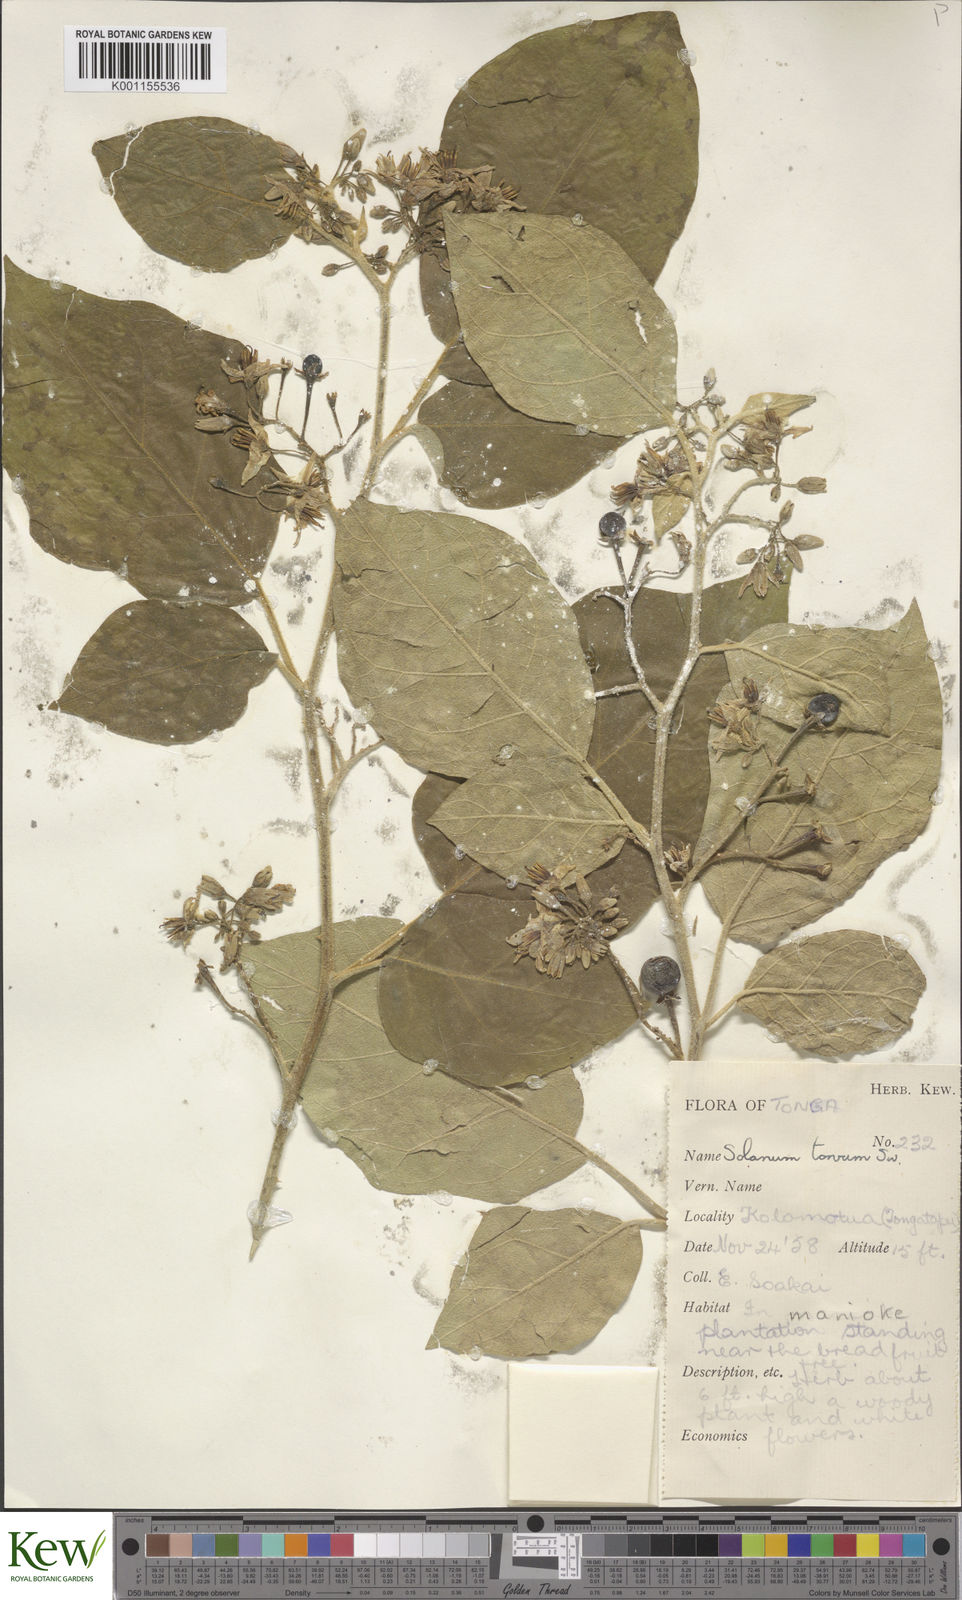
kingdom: Plantae
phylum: Tracheophyta
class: Magnoliopsida
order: Solanales
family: Solanaceae
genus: Solanum
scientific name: Solanum torvum
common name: Turkey berry
